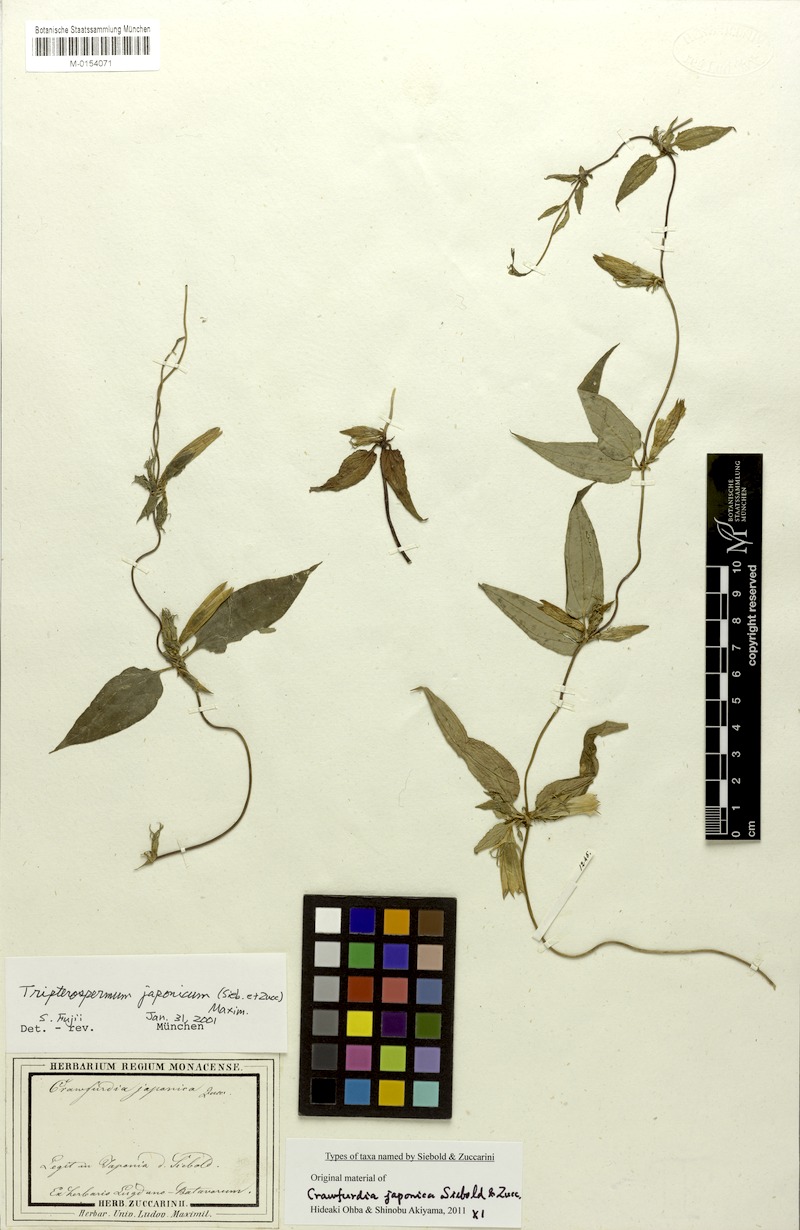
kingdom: Plantae
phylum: Tracheophyta
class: Magnoliopsida
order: Gentianales
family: Gentianaceae
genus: Tripterospermum
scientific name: Tripterospermum trinervium
